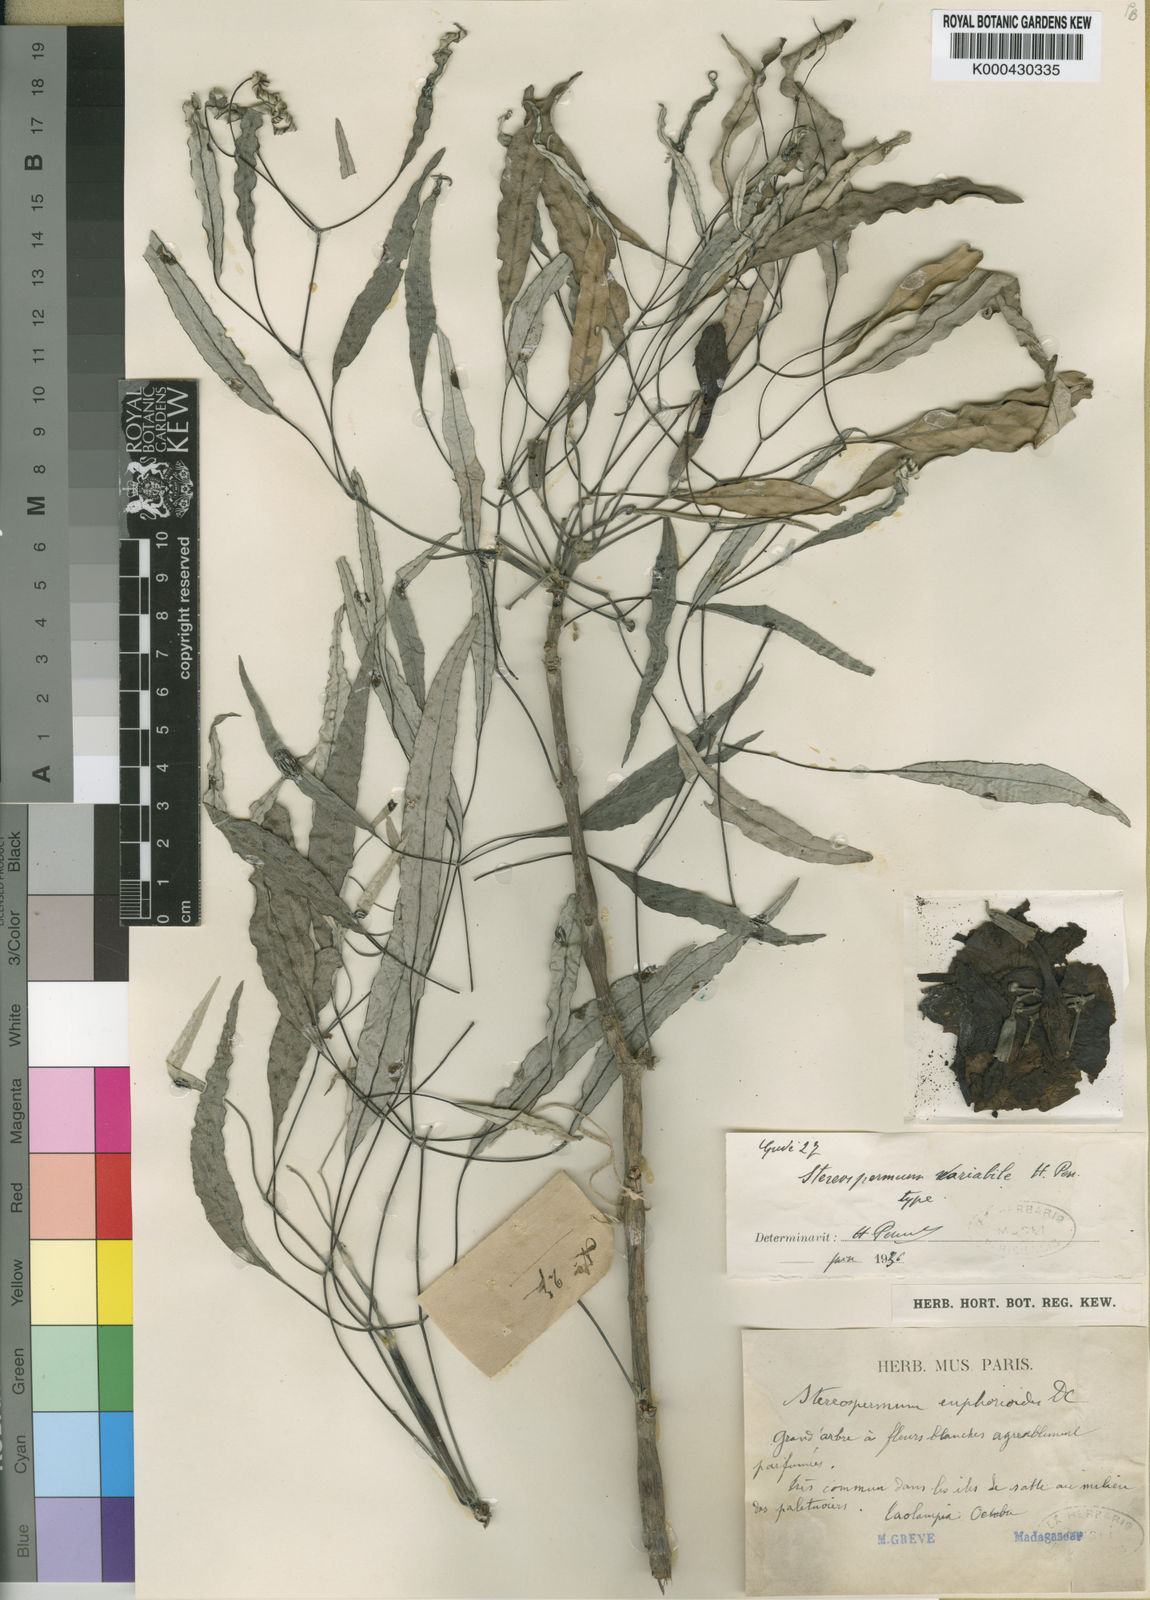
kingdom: Plantae
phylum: Tracheophyta
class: Magnoliopsida
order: Lamiales
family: Bignoniaceae
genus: Stereospermum
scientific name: Stereospermum variabile
